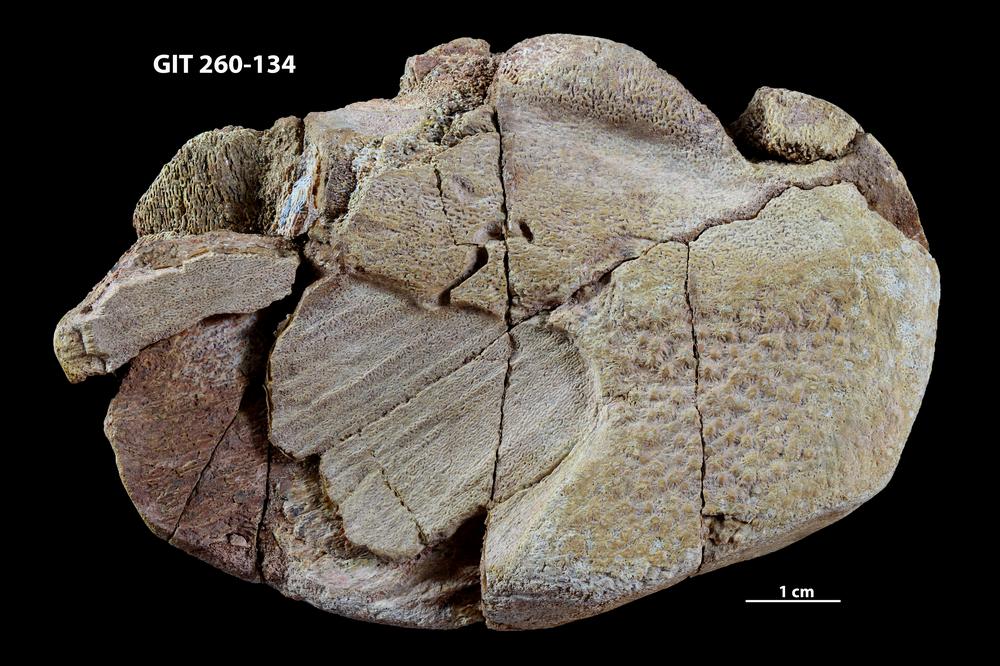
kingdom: Animalia
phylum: Chordata
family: Homostiidae
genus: Homostius
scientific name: Homostius
